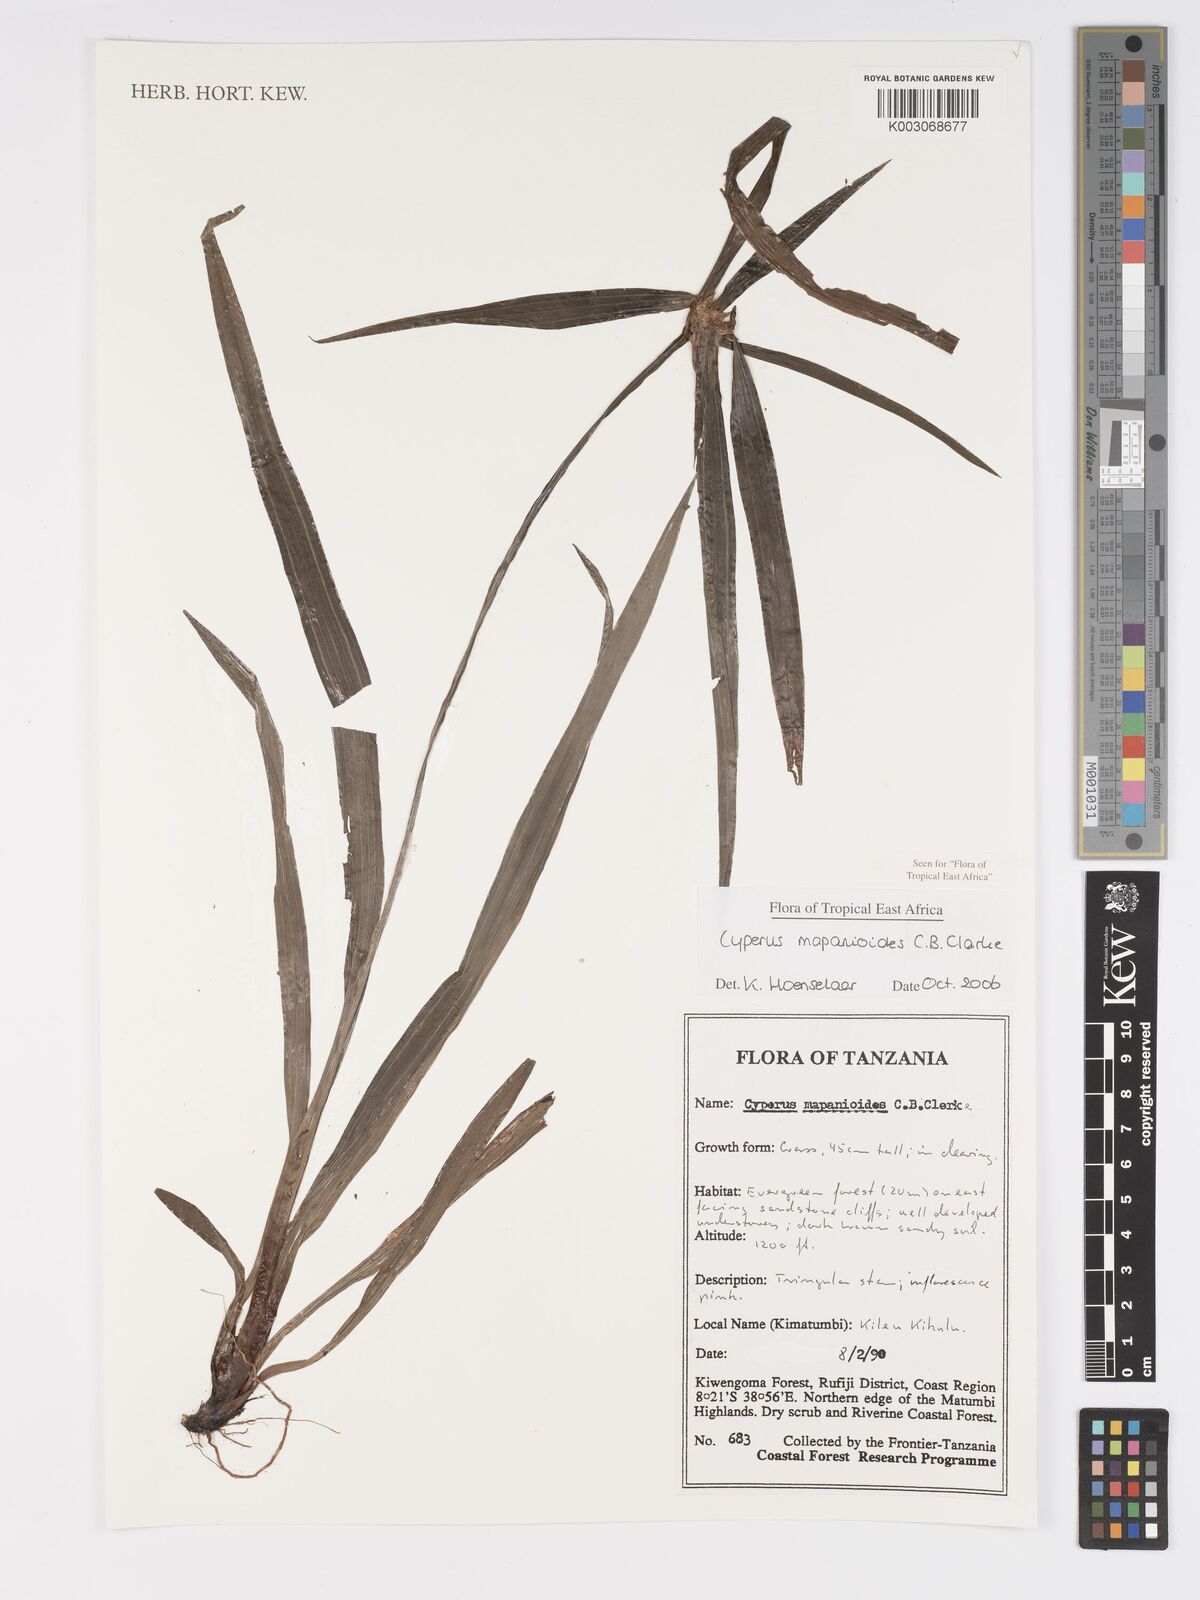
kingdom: Plantae
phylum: Tracheophyta
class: Liliopsida
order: Poales
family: Cyperaceae
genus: Cyperus
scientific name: Cyperus mapanioides
